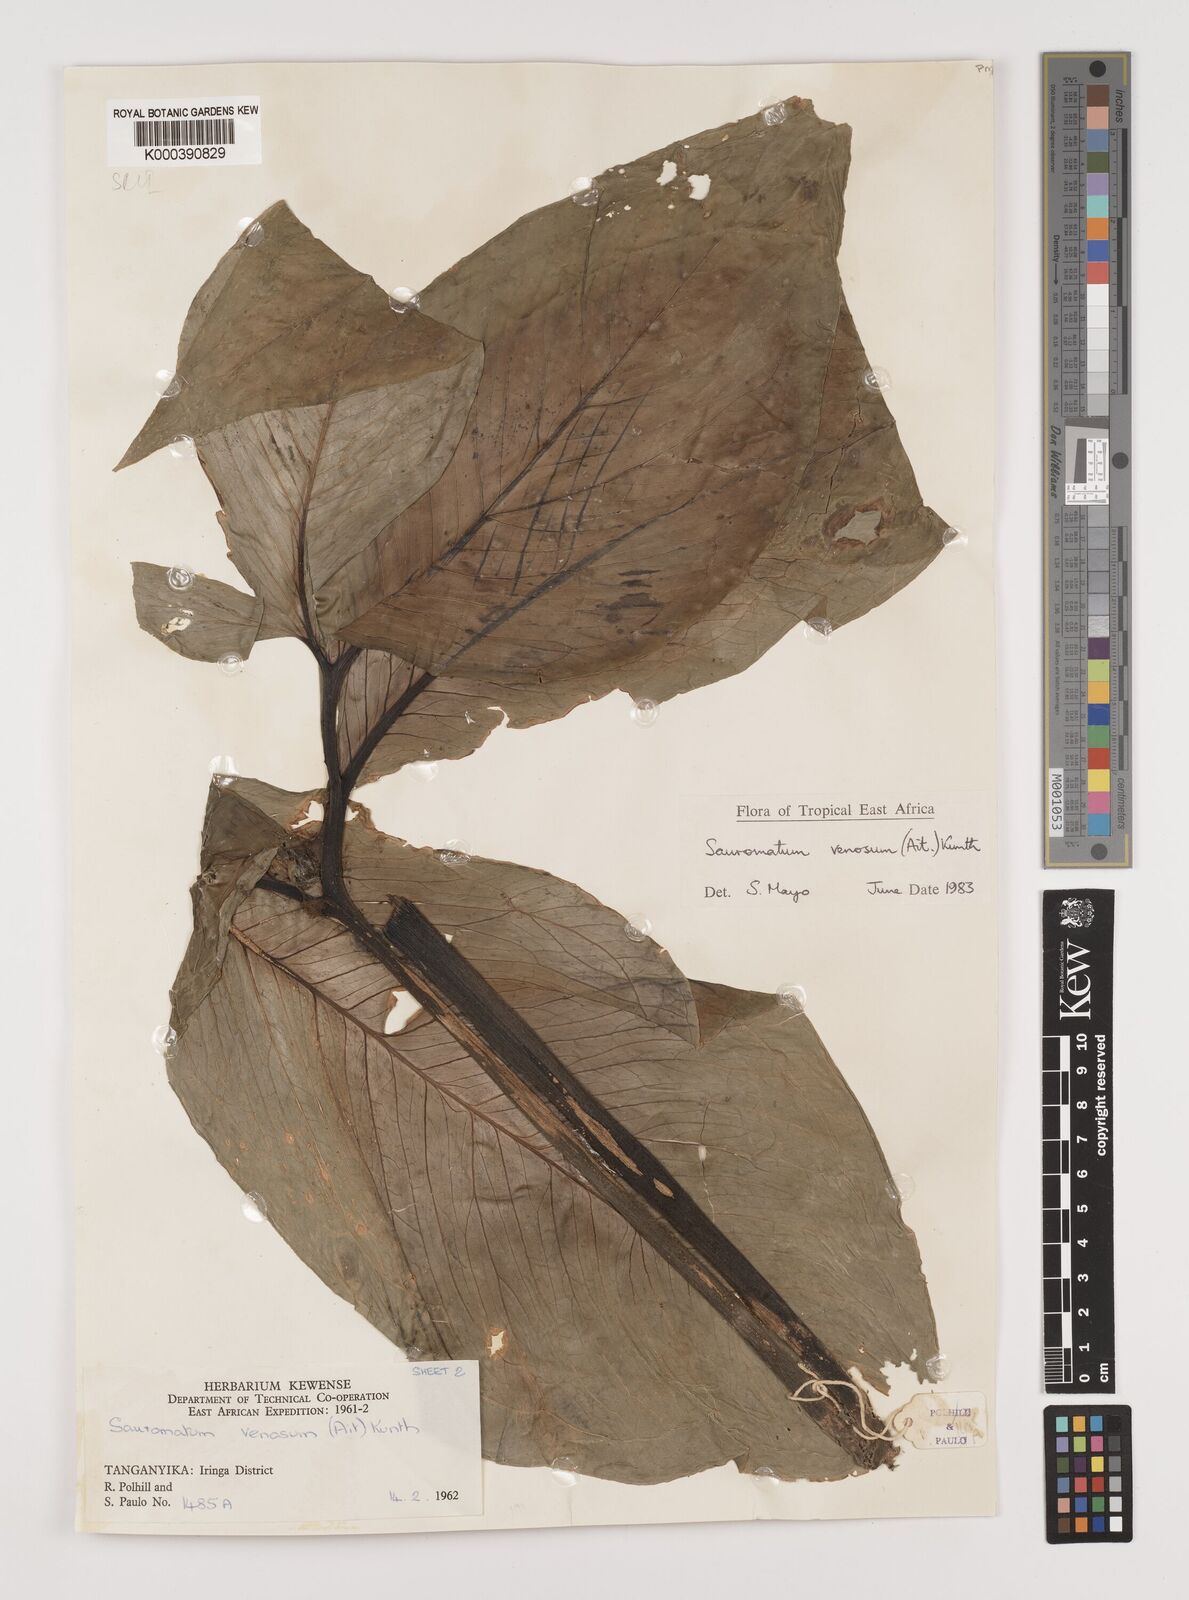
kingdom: Plantae
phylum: Tracheophyta
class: Liliopsida
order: Alismatales
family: Araceae
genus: Sauromatum
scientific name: Sauromatum venosum
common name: Voodoo lily
